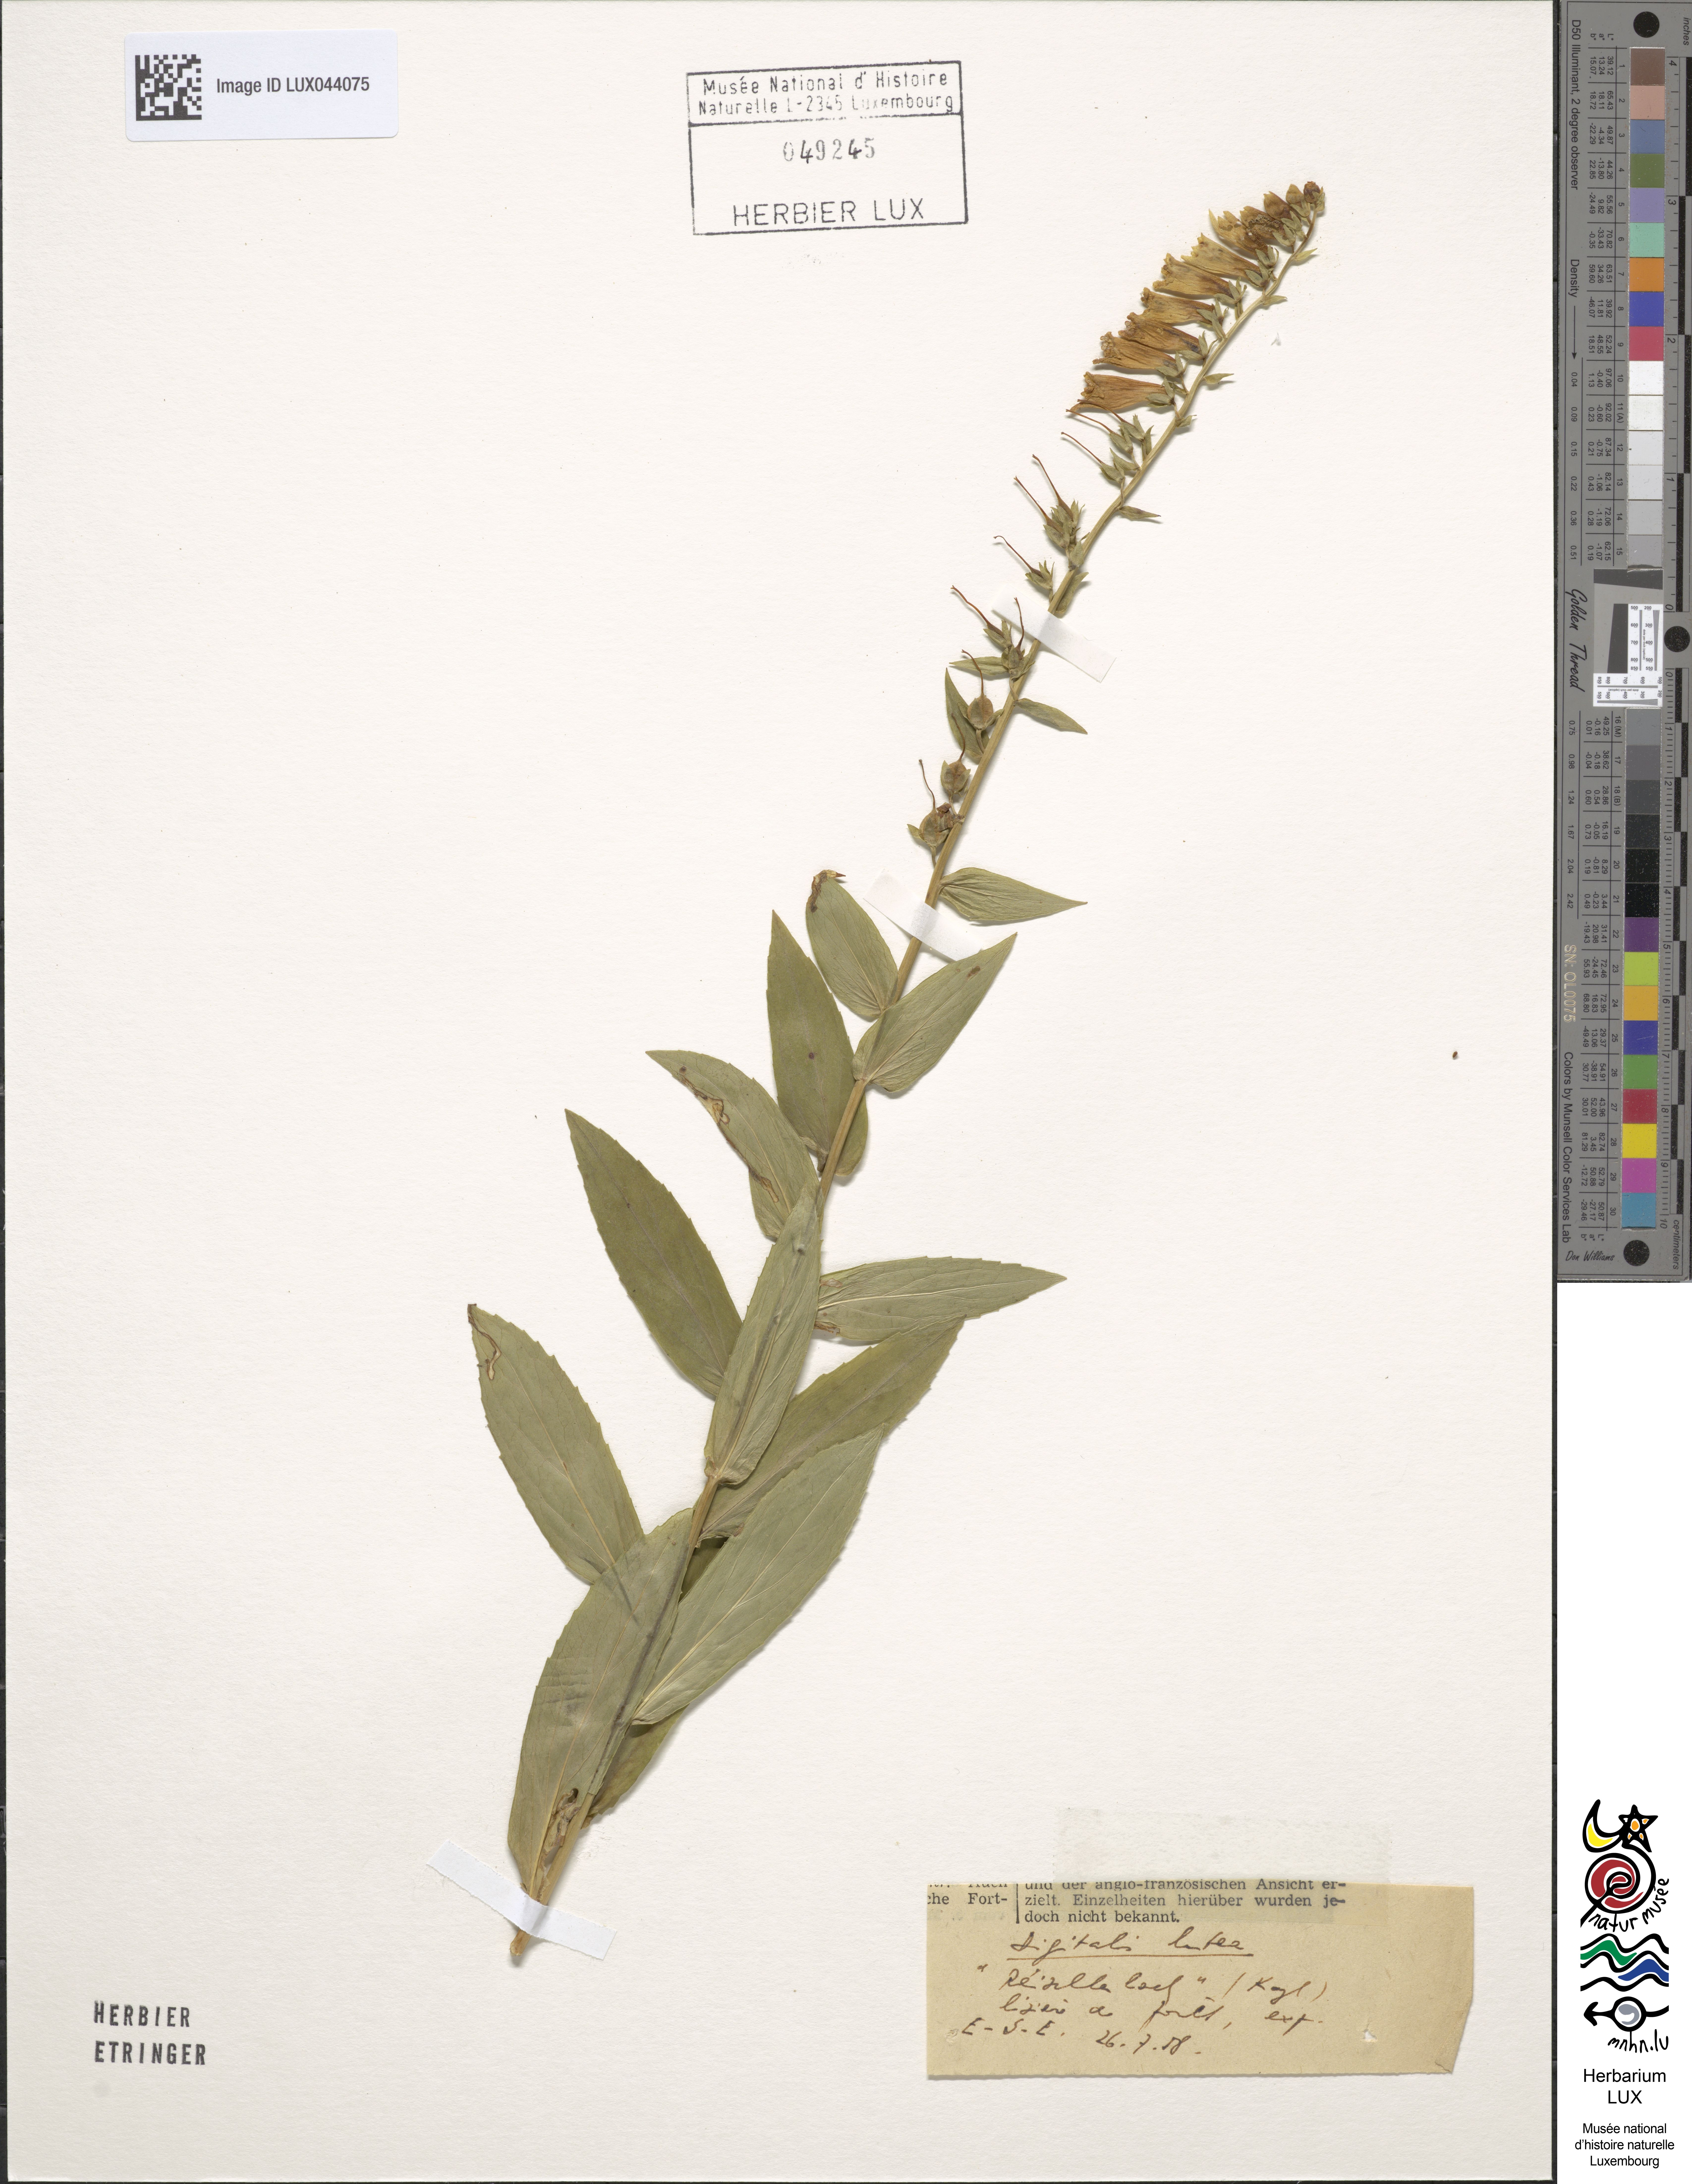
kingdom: Plantae
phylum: Tracheophyta
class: Magnoliopsida
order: Lamiales
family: Plantaginaceae
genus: Digitalis
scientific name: Digitalis lutea
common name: Straw foxglove
